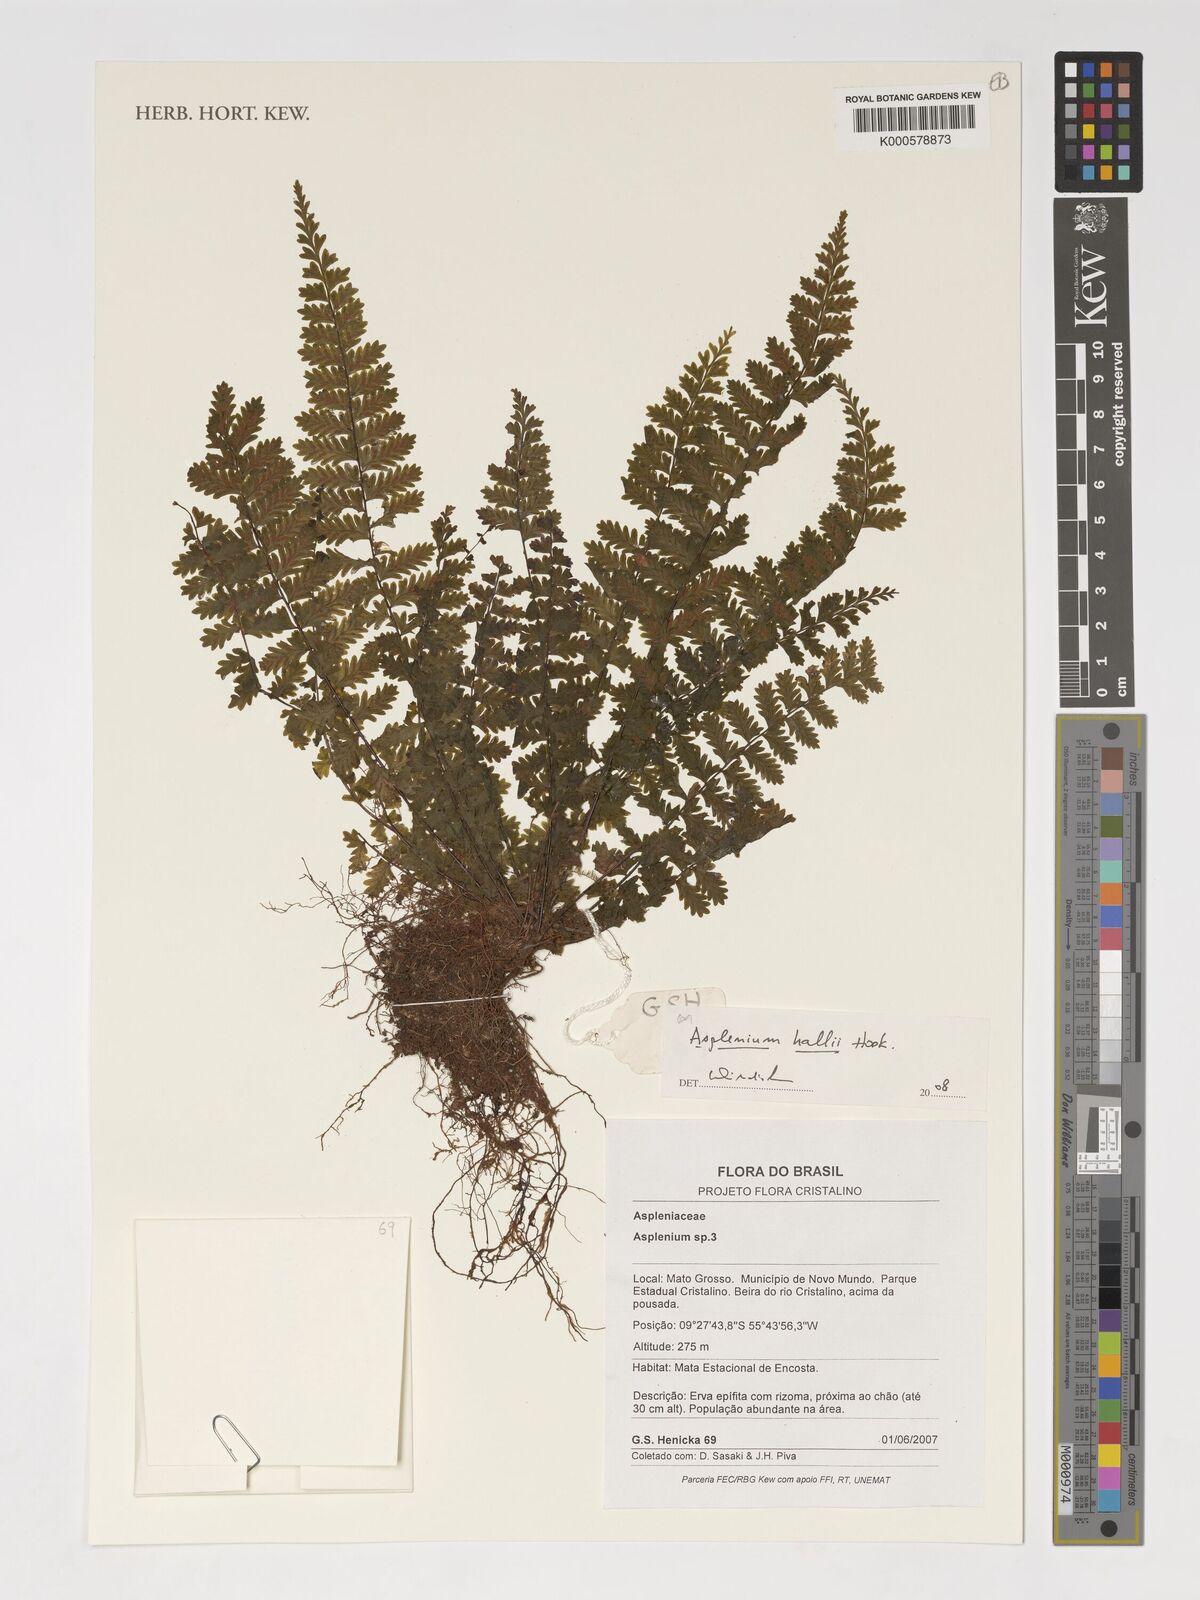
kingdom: Plantae
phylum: Tracheophyta
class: Polypodiopsida
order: Polypodiales
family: Aspleniaceae
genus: Asplenium
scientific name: Asplenium hallii
